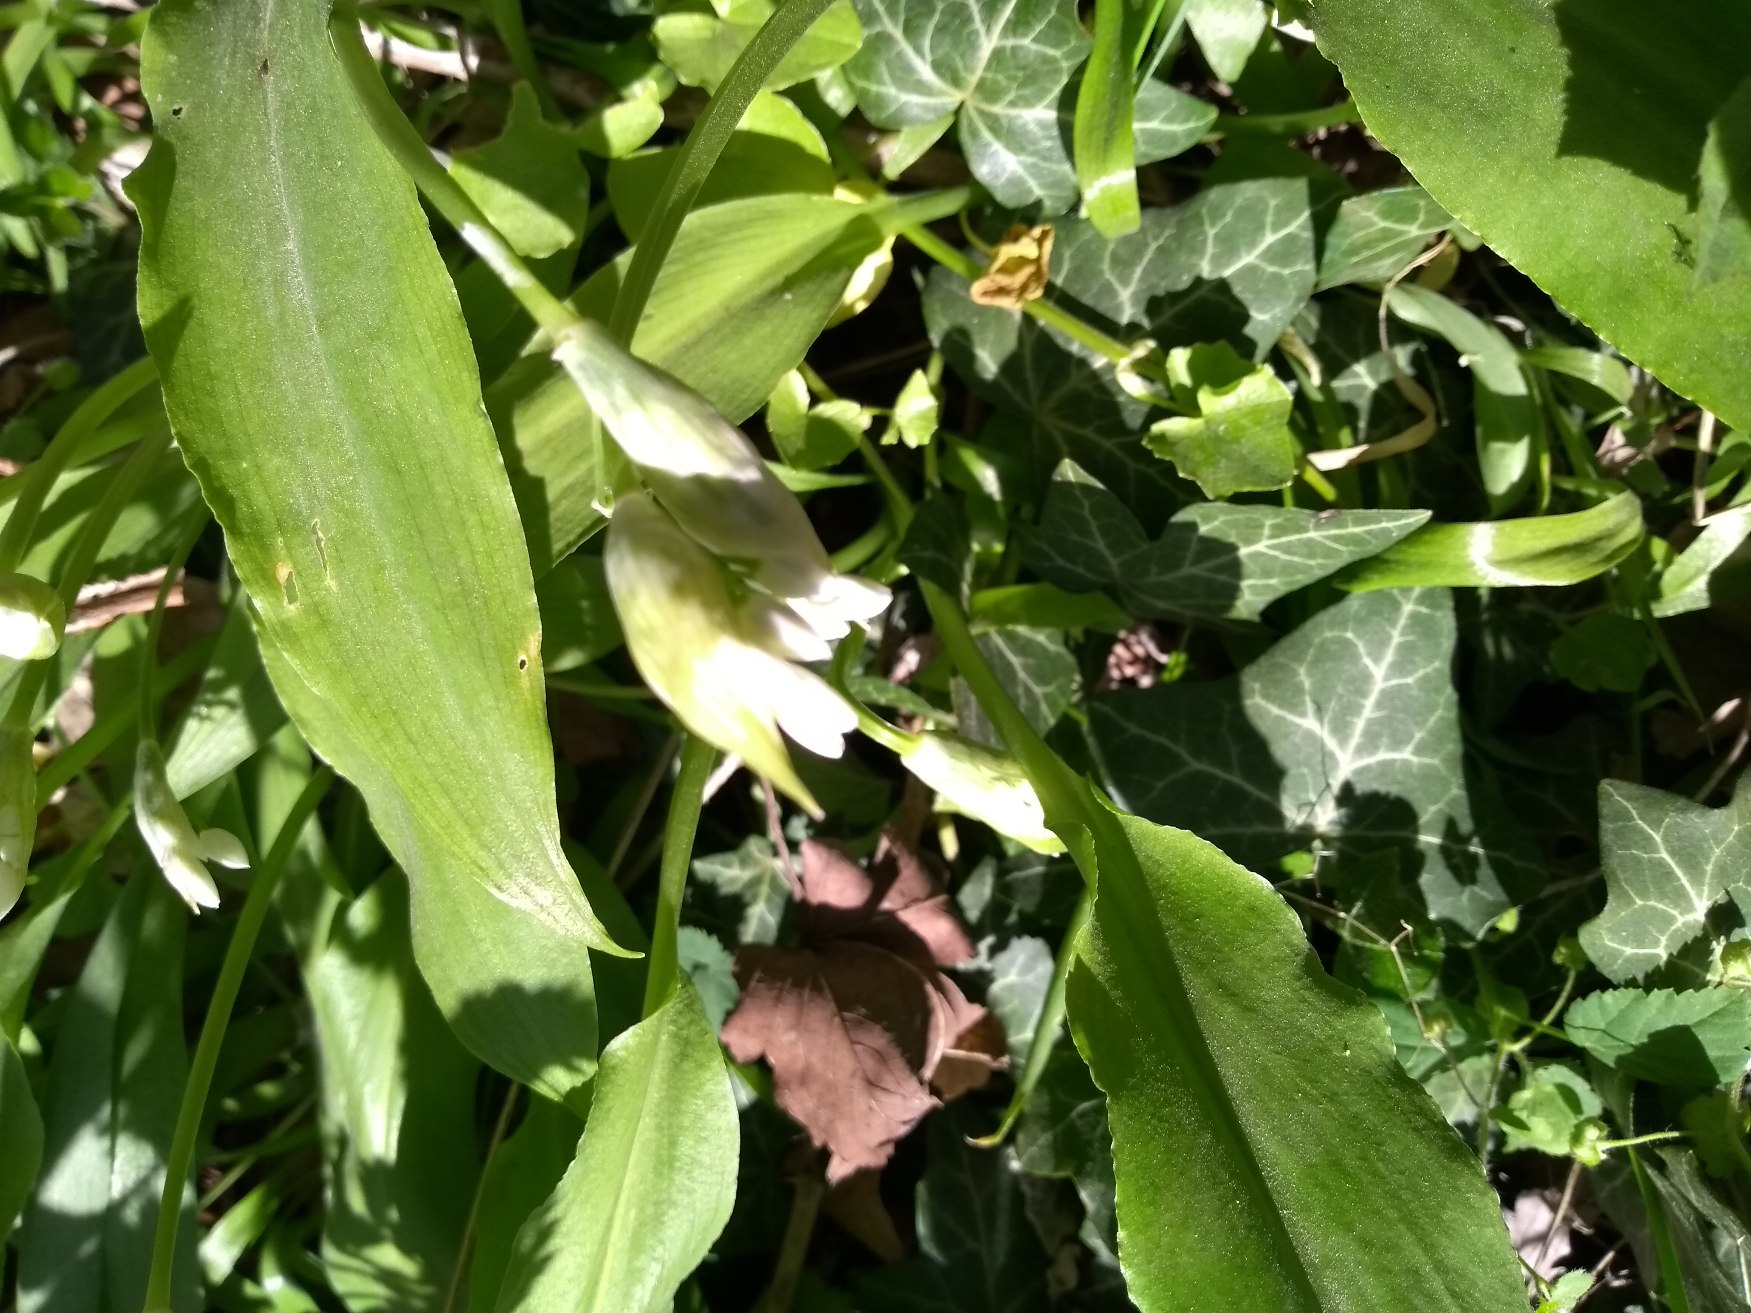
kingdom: Plantae
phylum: Tracheophyta
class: Liliopsida
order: Asparagales
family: Amaryllidaceae
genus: Allium
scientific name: Allium ursinum
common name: Rams-løg
